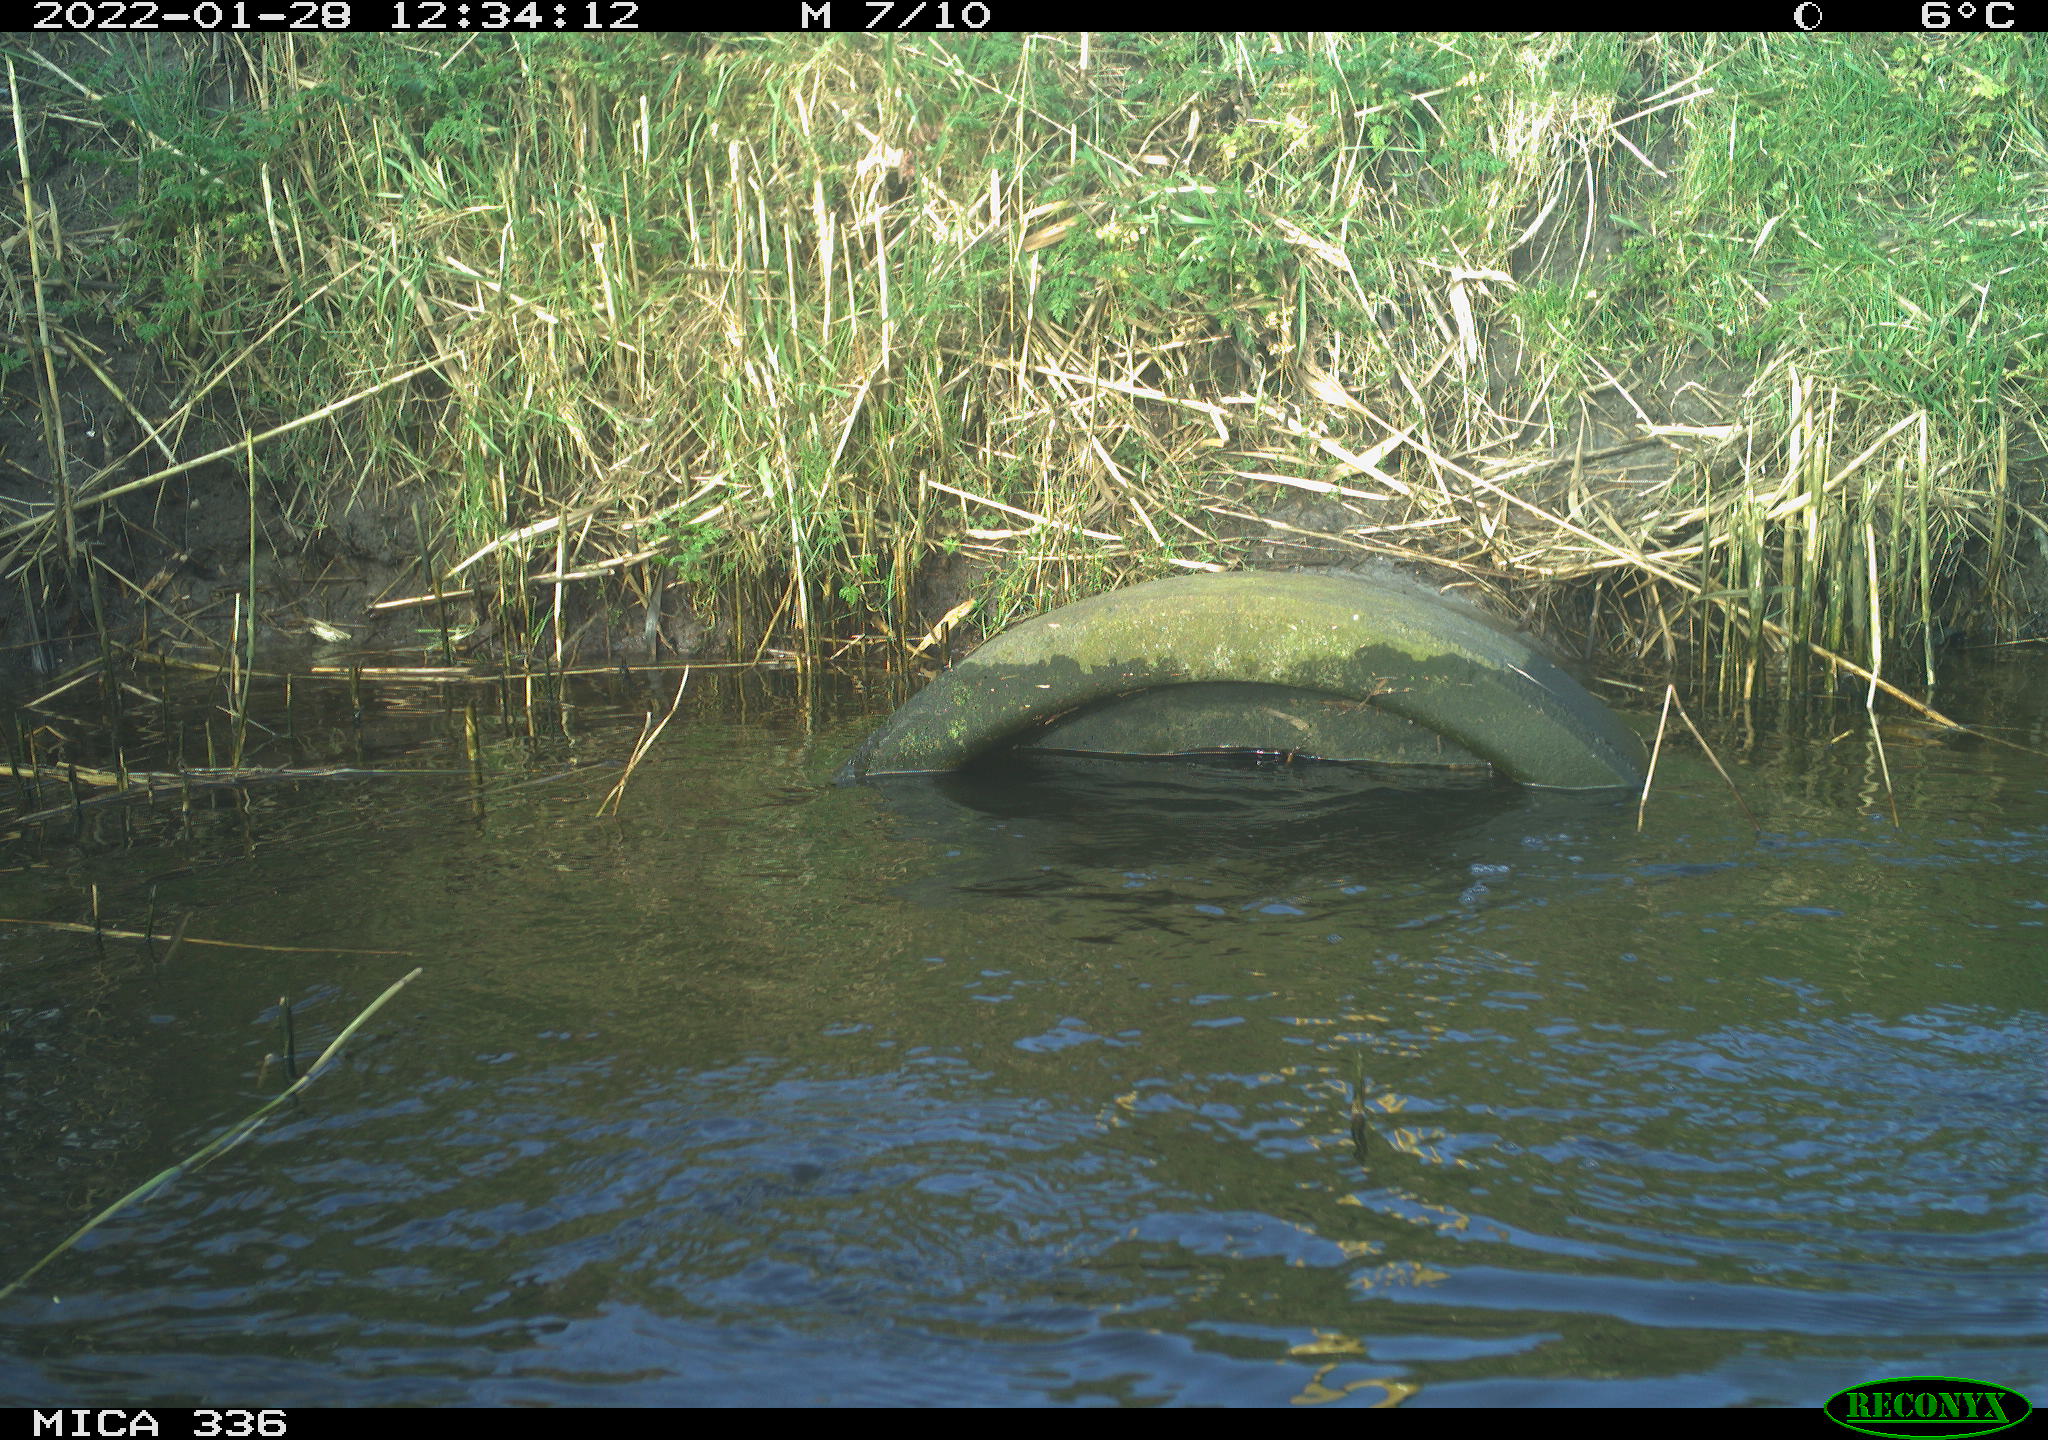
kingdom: Animalia
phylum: Chordata
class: Aves
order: Suliformes
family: Phalacrocoracidae
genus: Phalacrocorax
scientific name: Phalacrocorax carbo
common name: Great cormorant
